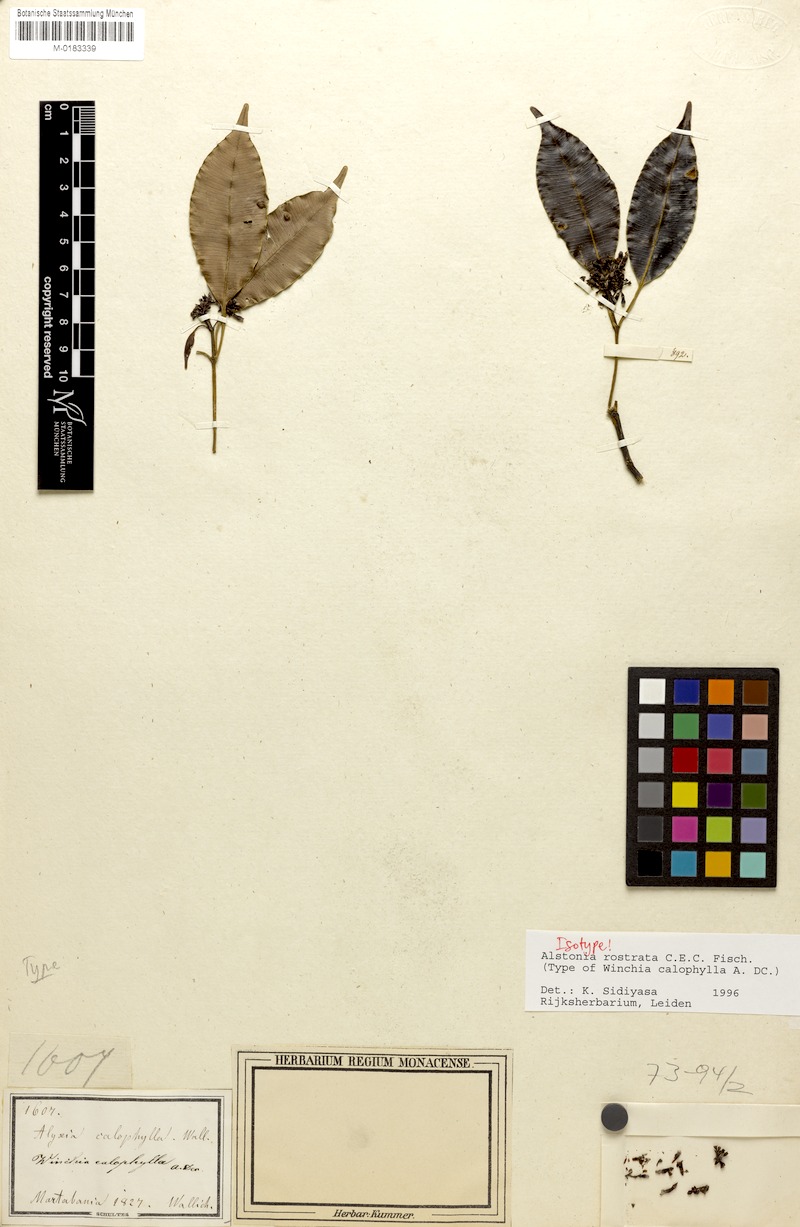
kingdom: Plantae
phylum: Tracheophyta
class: Magnoliopsida
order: Gentianales
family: Apocynaceae
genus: Alstonia
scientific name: Alstonia rostrata
